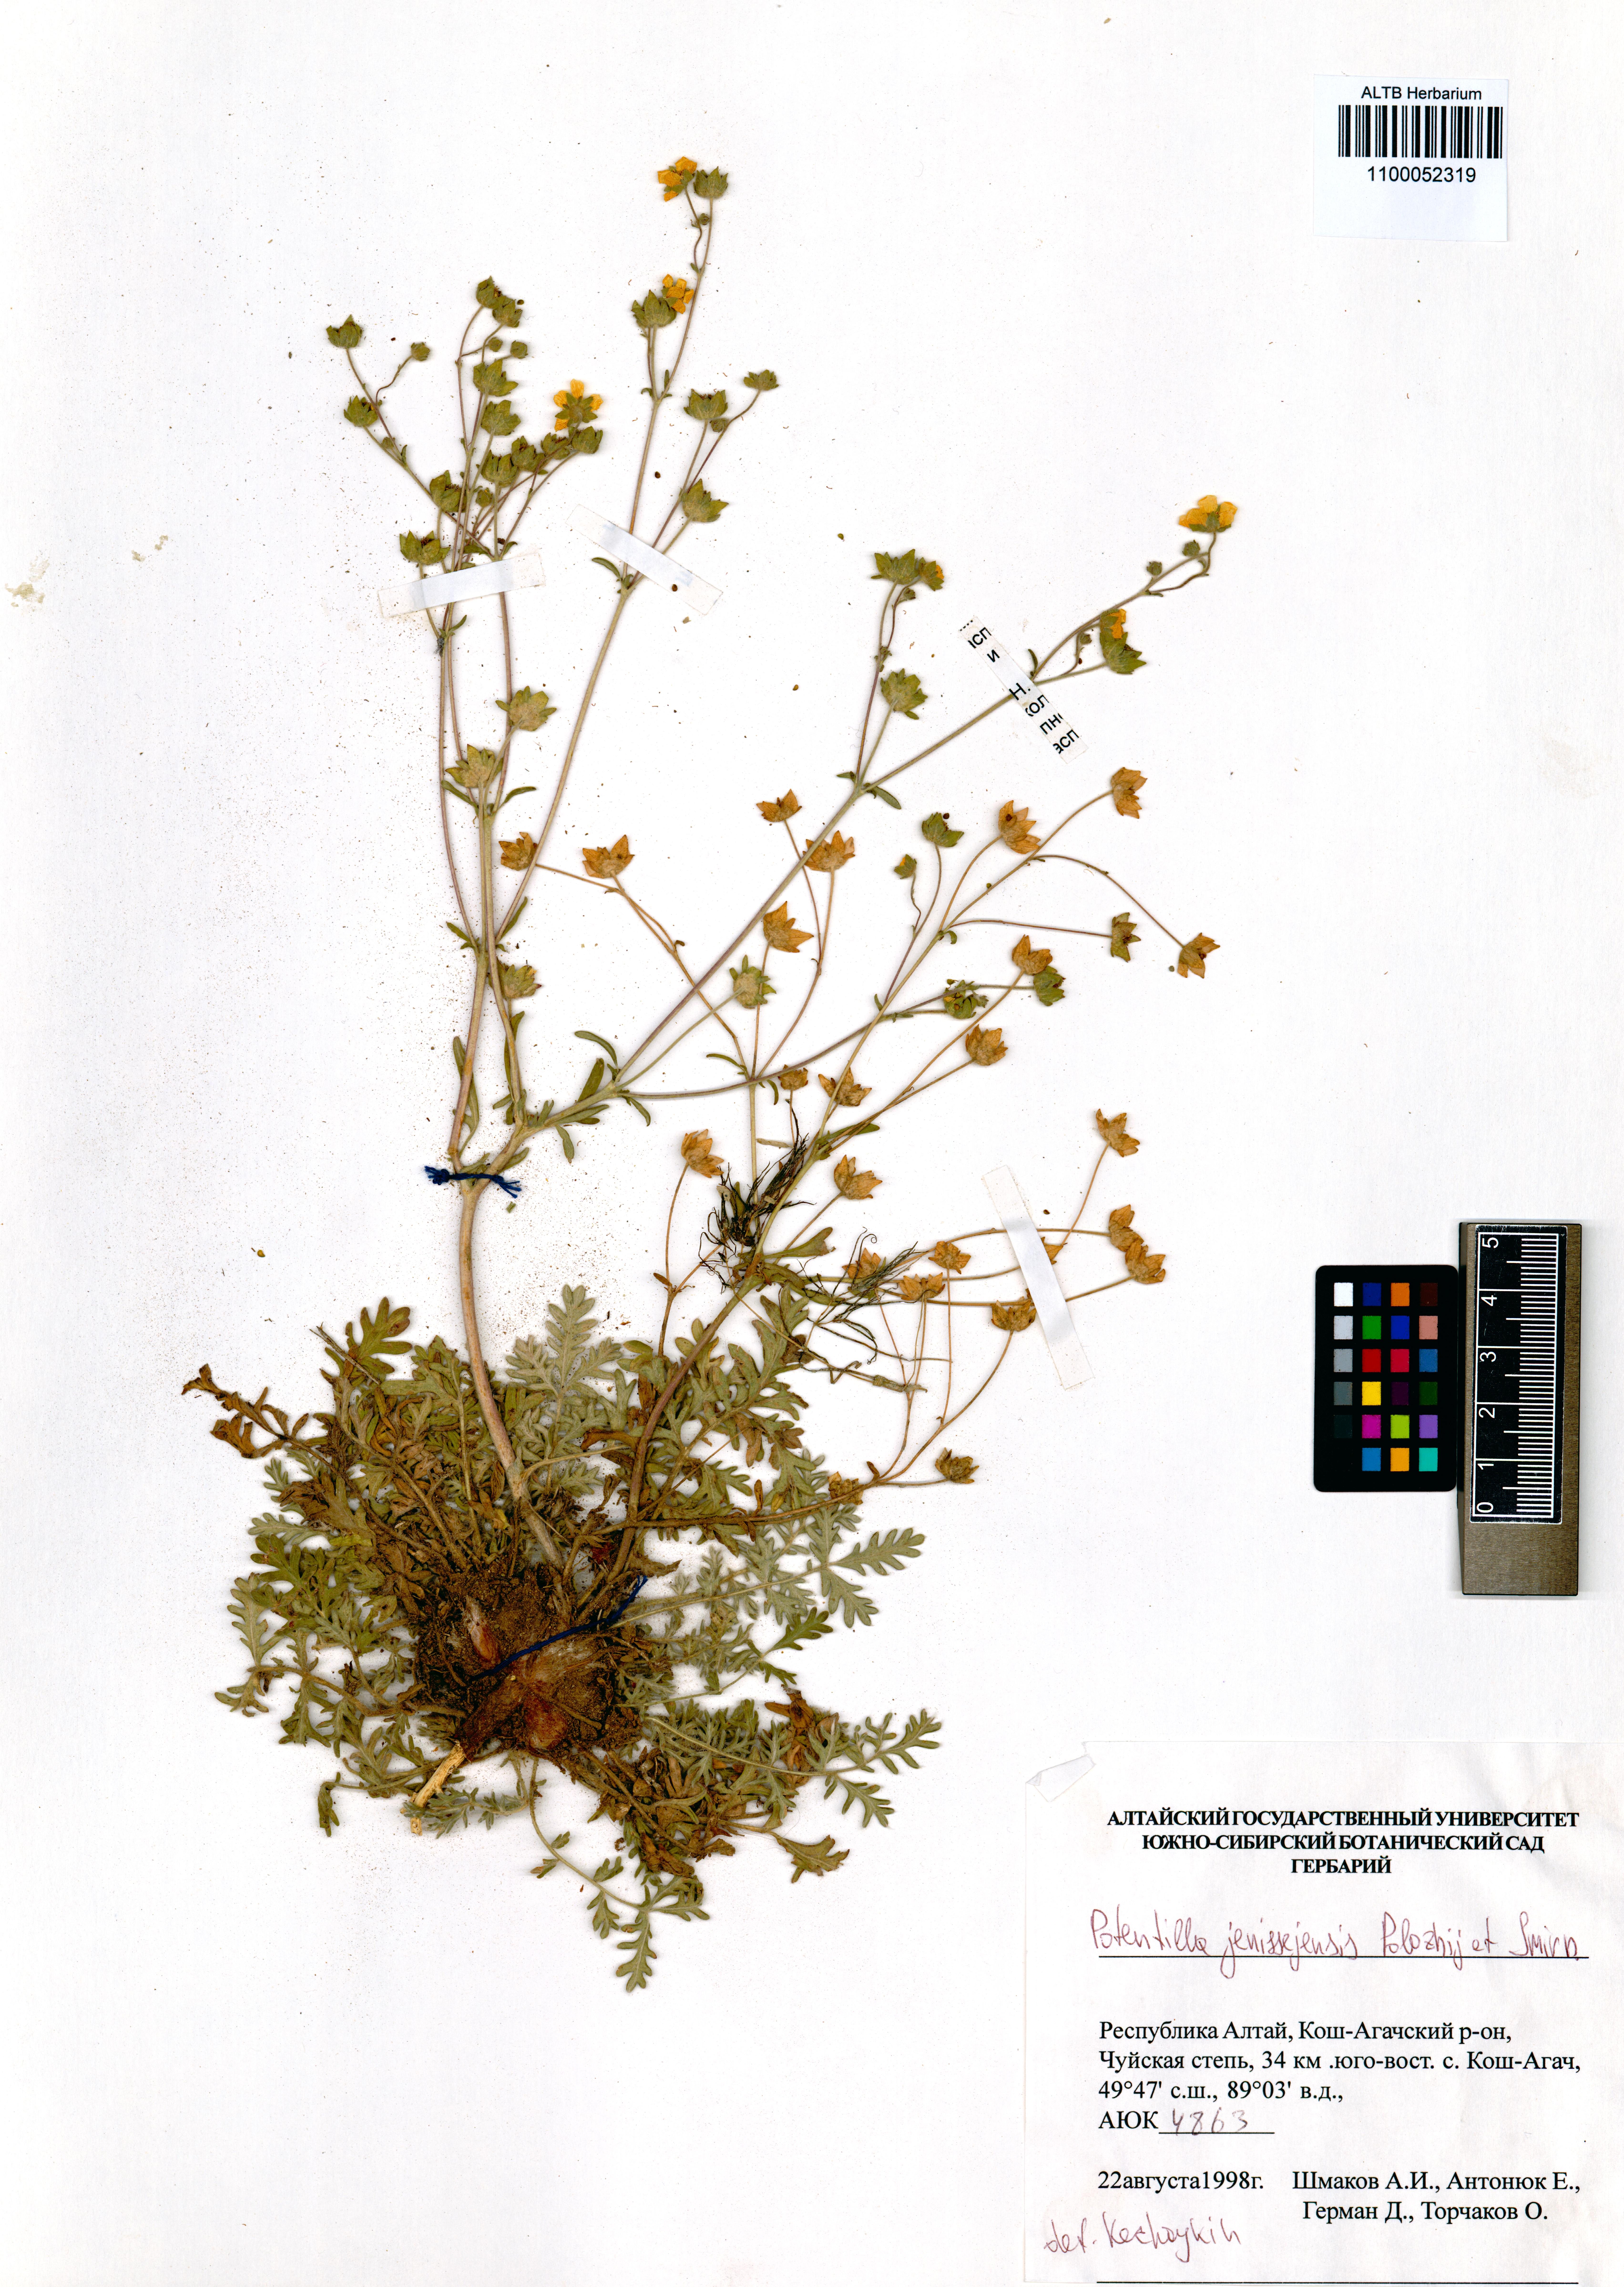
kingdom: Plantae
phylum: Tracheophyta
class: Magnoliopsida
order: Rosales
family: Rosaceae
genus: Potentilla
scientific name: Potentilla jenissejensis
